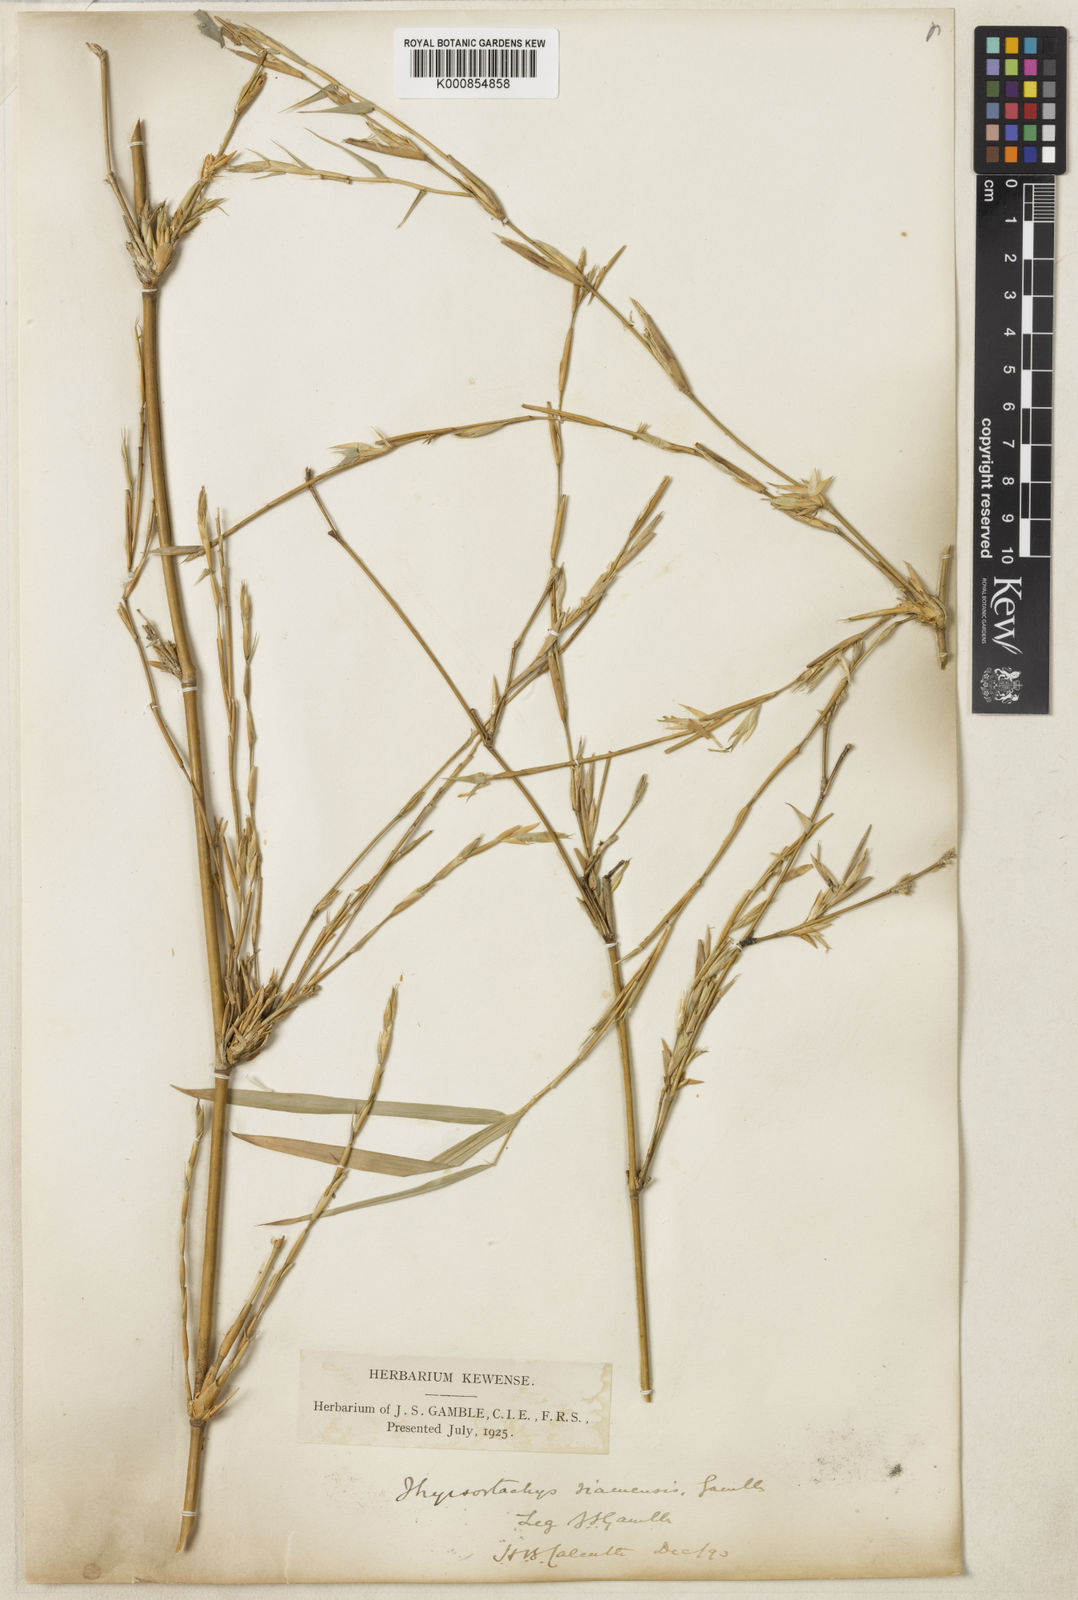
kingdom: Plantae
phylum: Tracheophyta
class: Liliopsida
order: Poales
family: Poaceae
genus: Thyrsostachys
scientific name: Thyrsostachys siamensis
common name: Thailand bamboo
